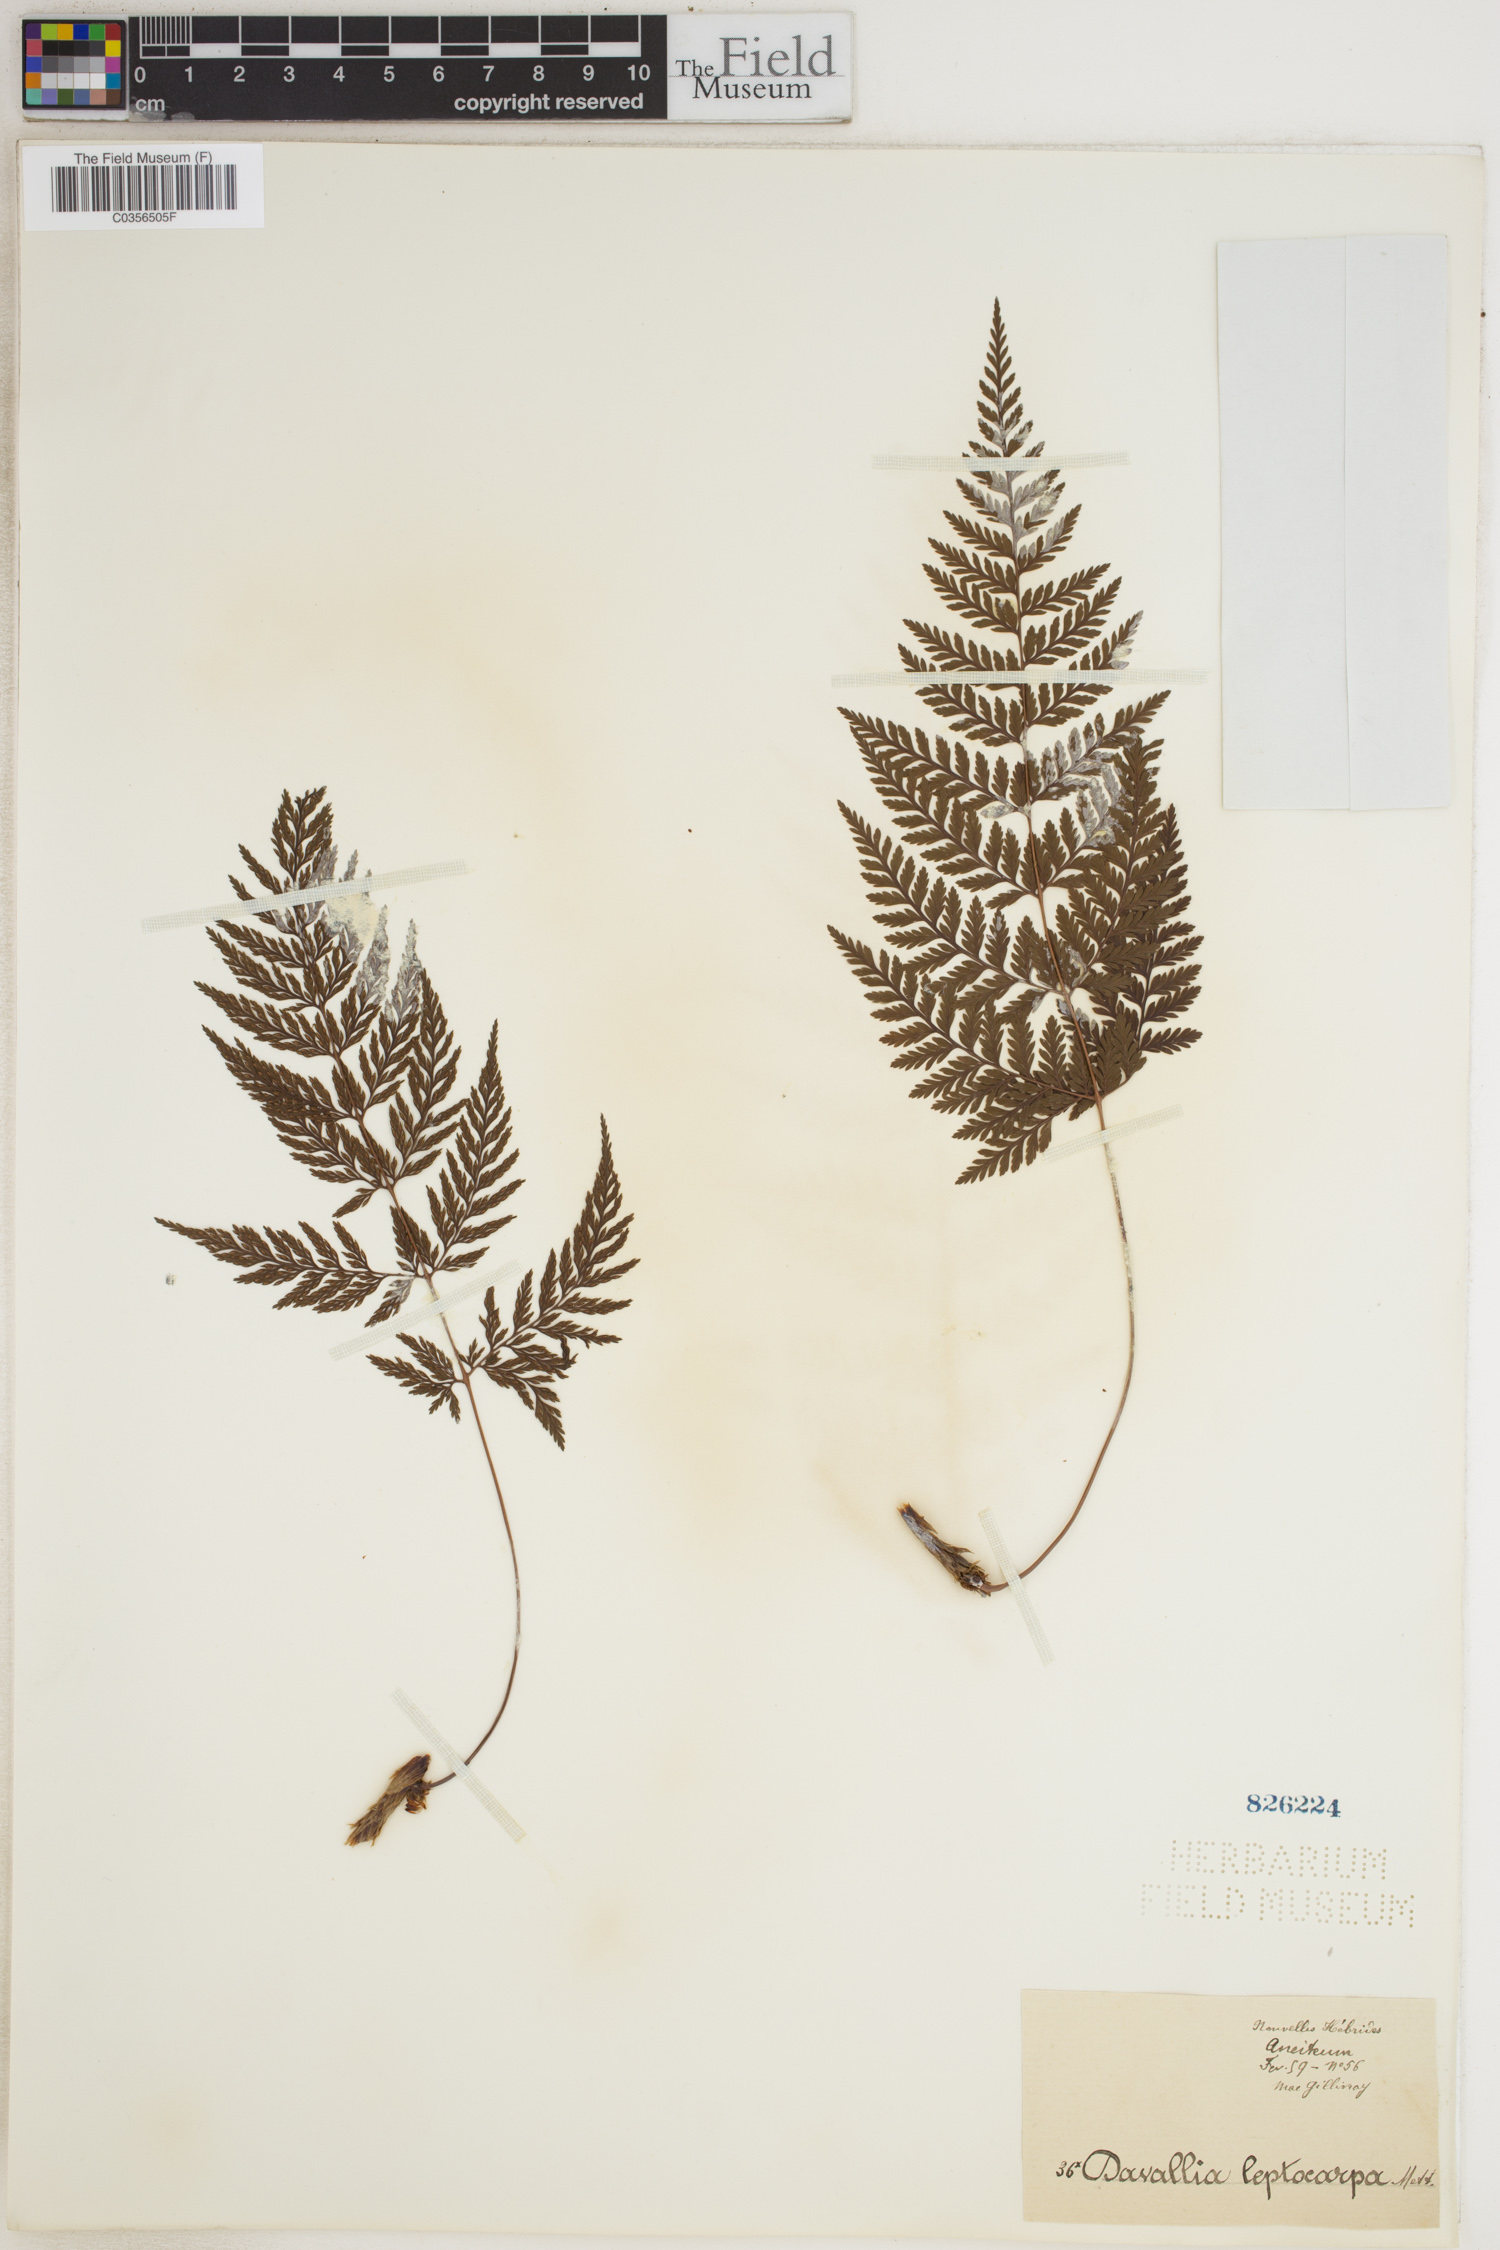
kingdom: Plantae
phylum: Tracheophyta
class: Polypodiopsida
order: Polypodiales
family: Davalliaceae
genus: Davallia
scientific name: Davallia leptocarpa
